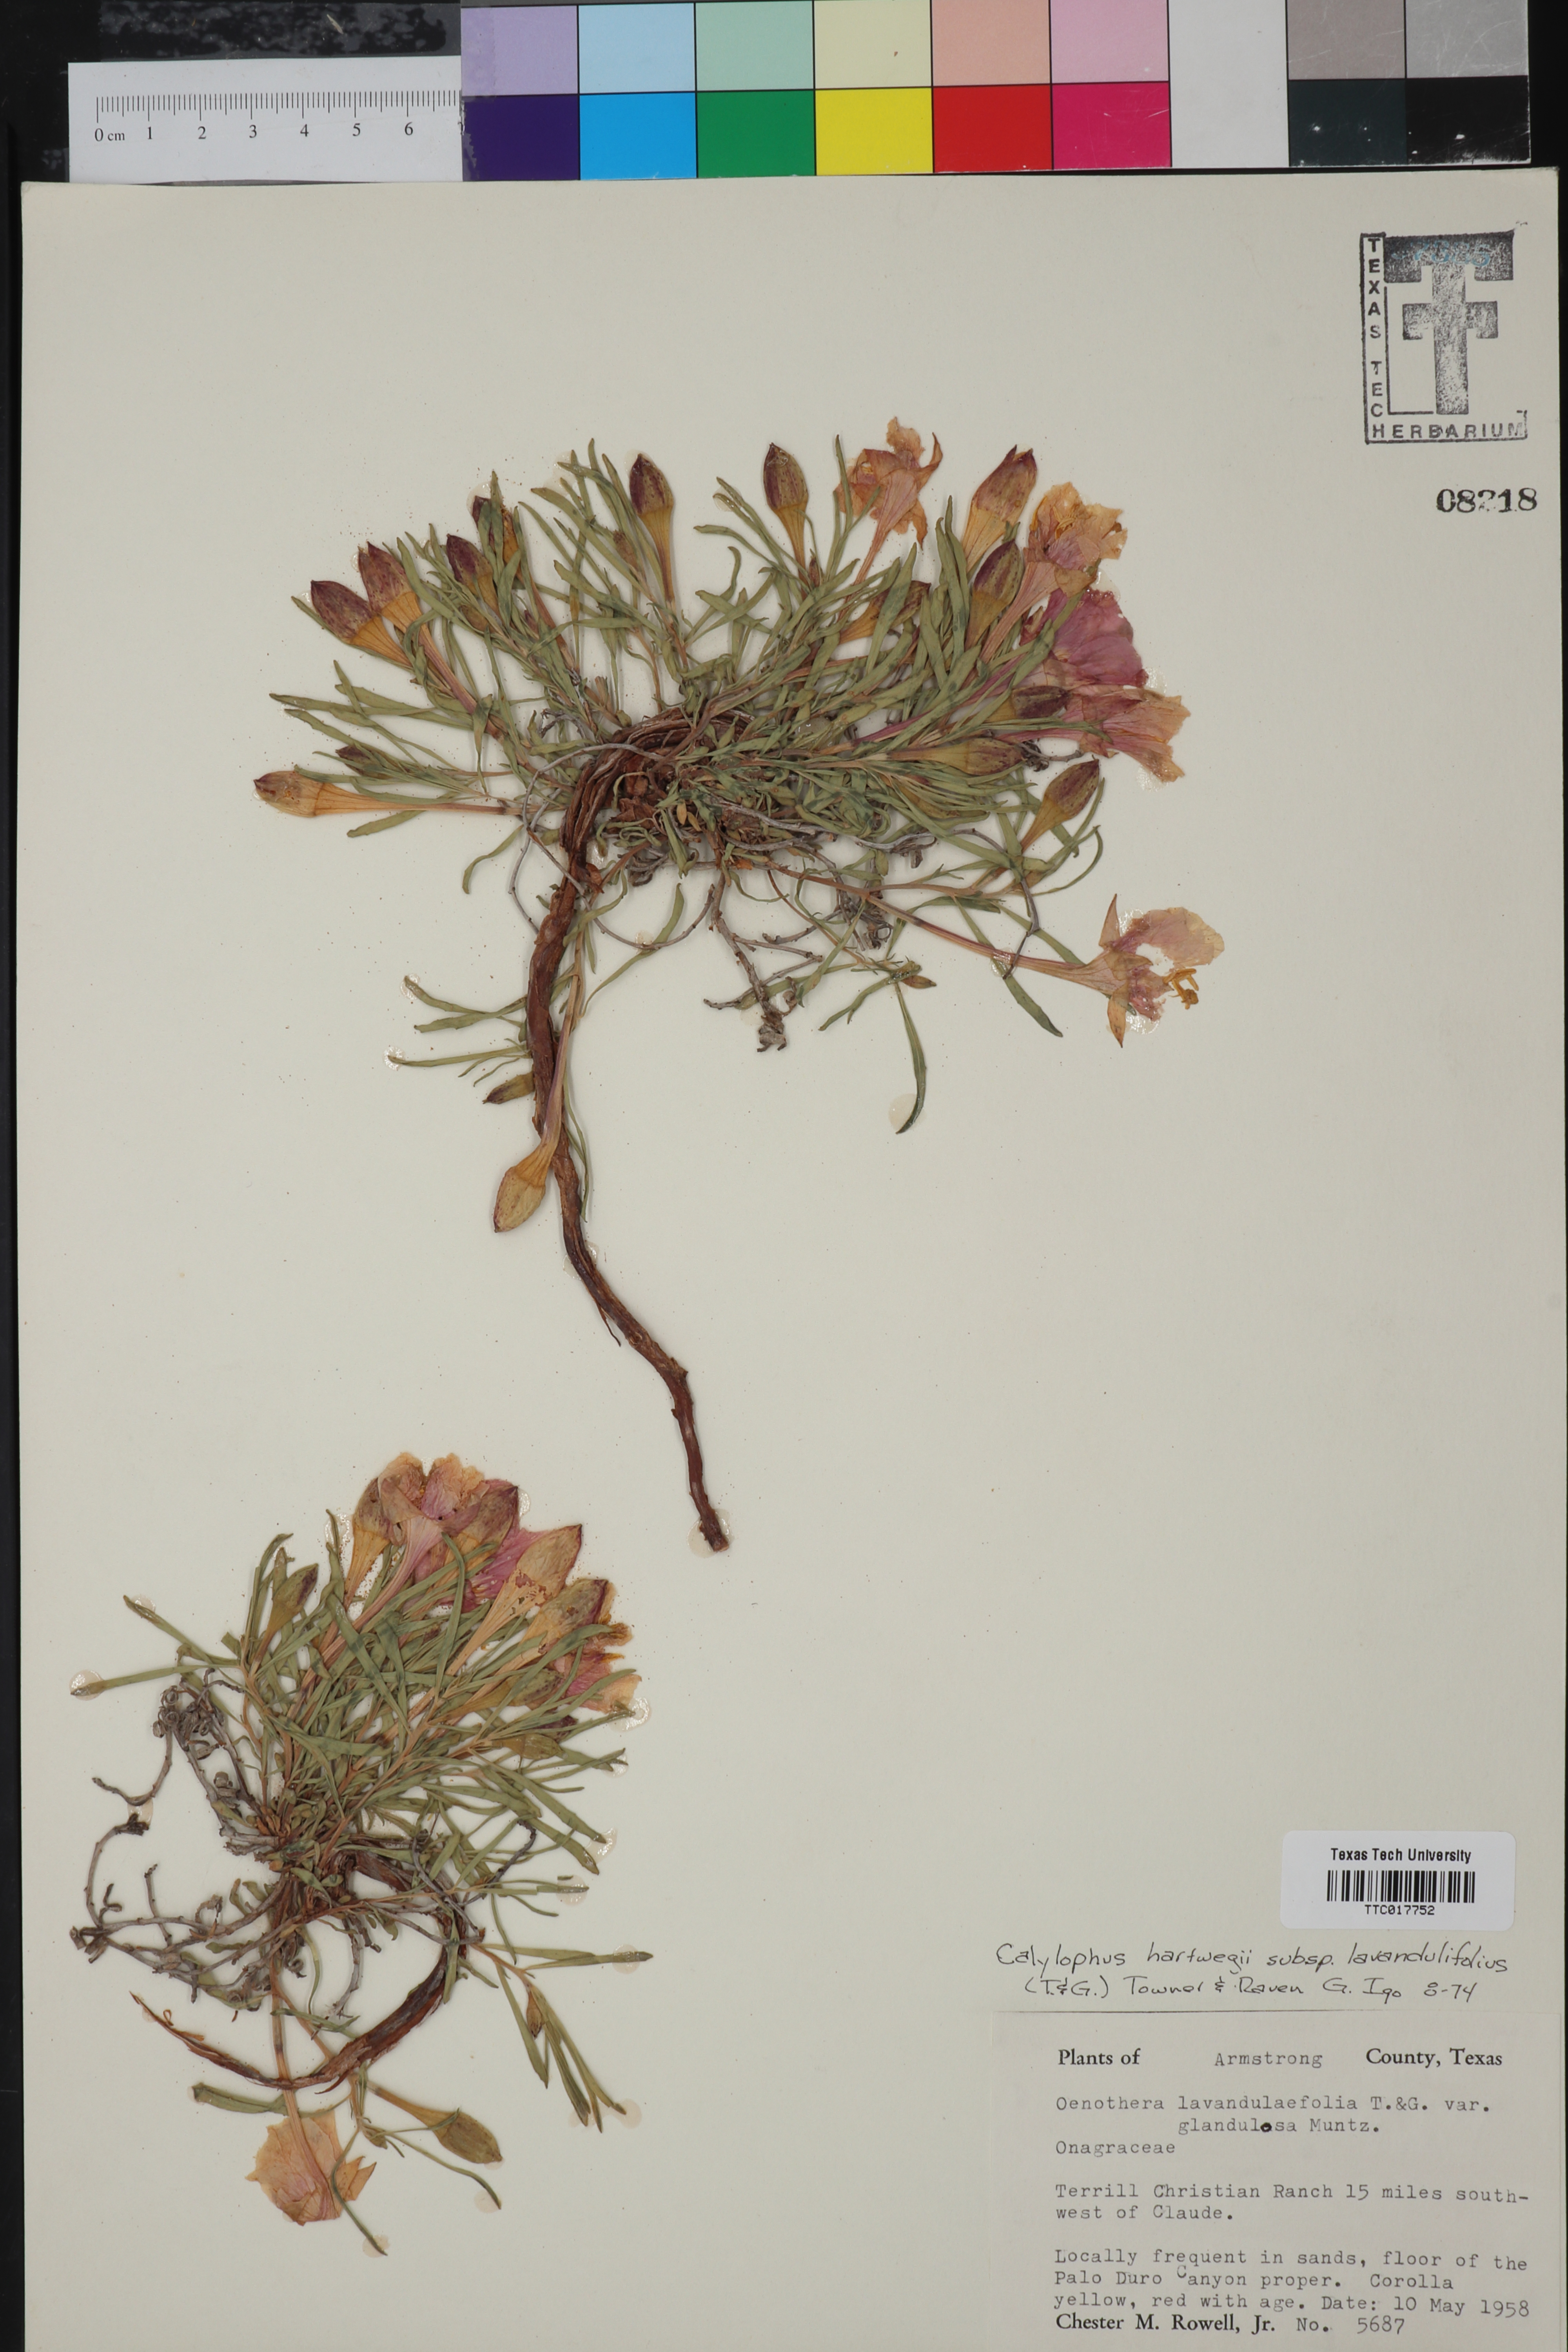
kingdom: Plantae
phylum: Tracheophyta
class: Magnoliopsida
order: Myrtales
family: Onagraceae
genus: Oenothera
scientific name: Oenothera hartwegii
